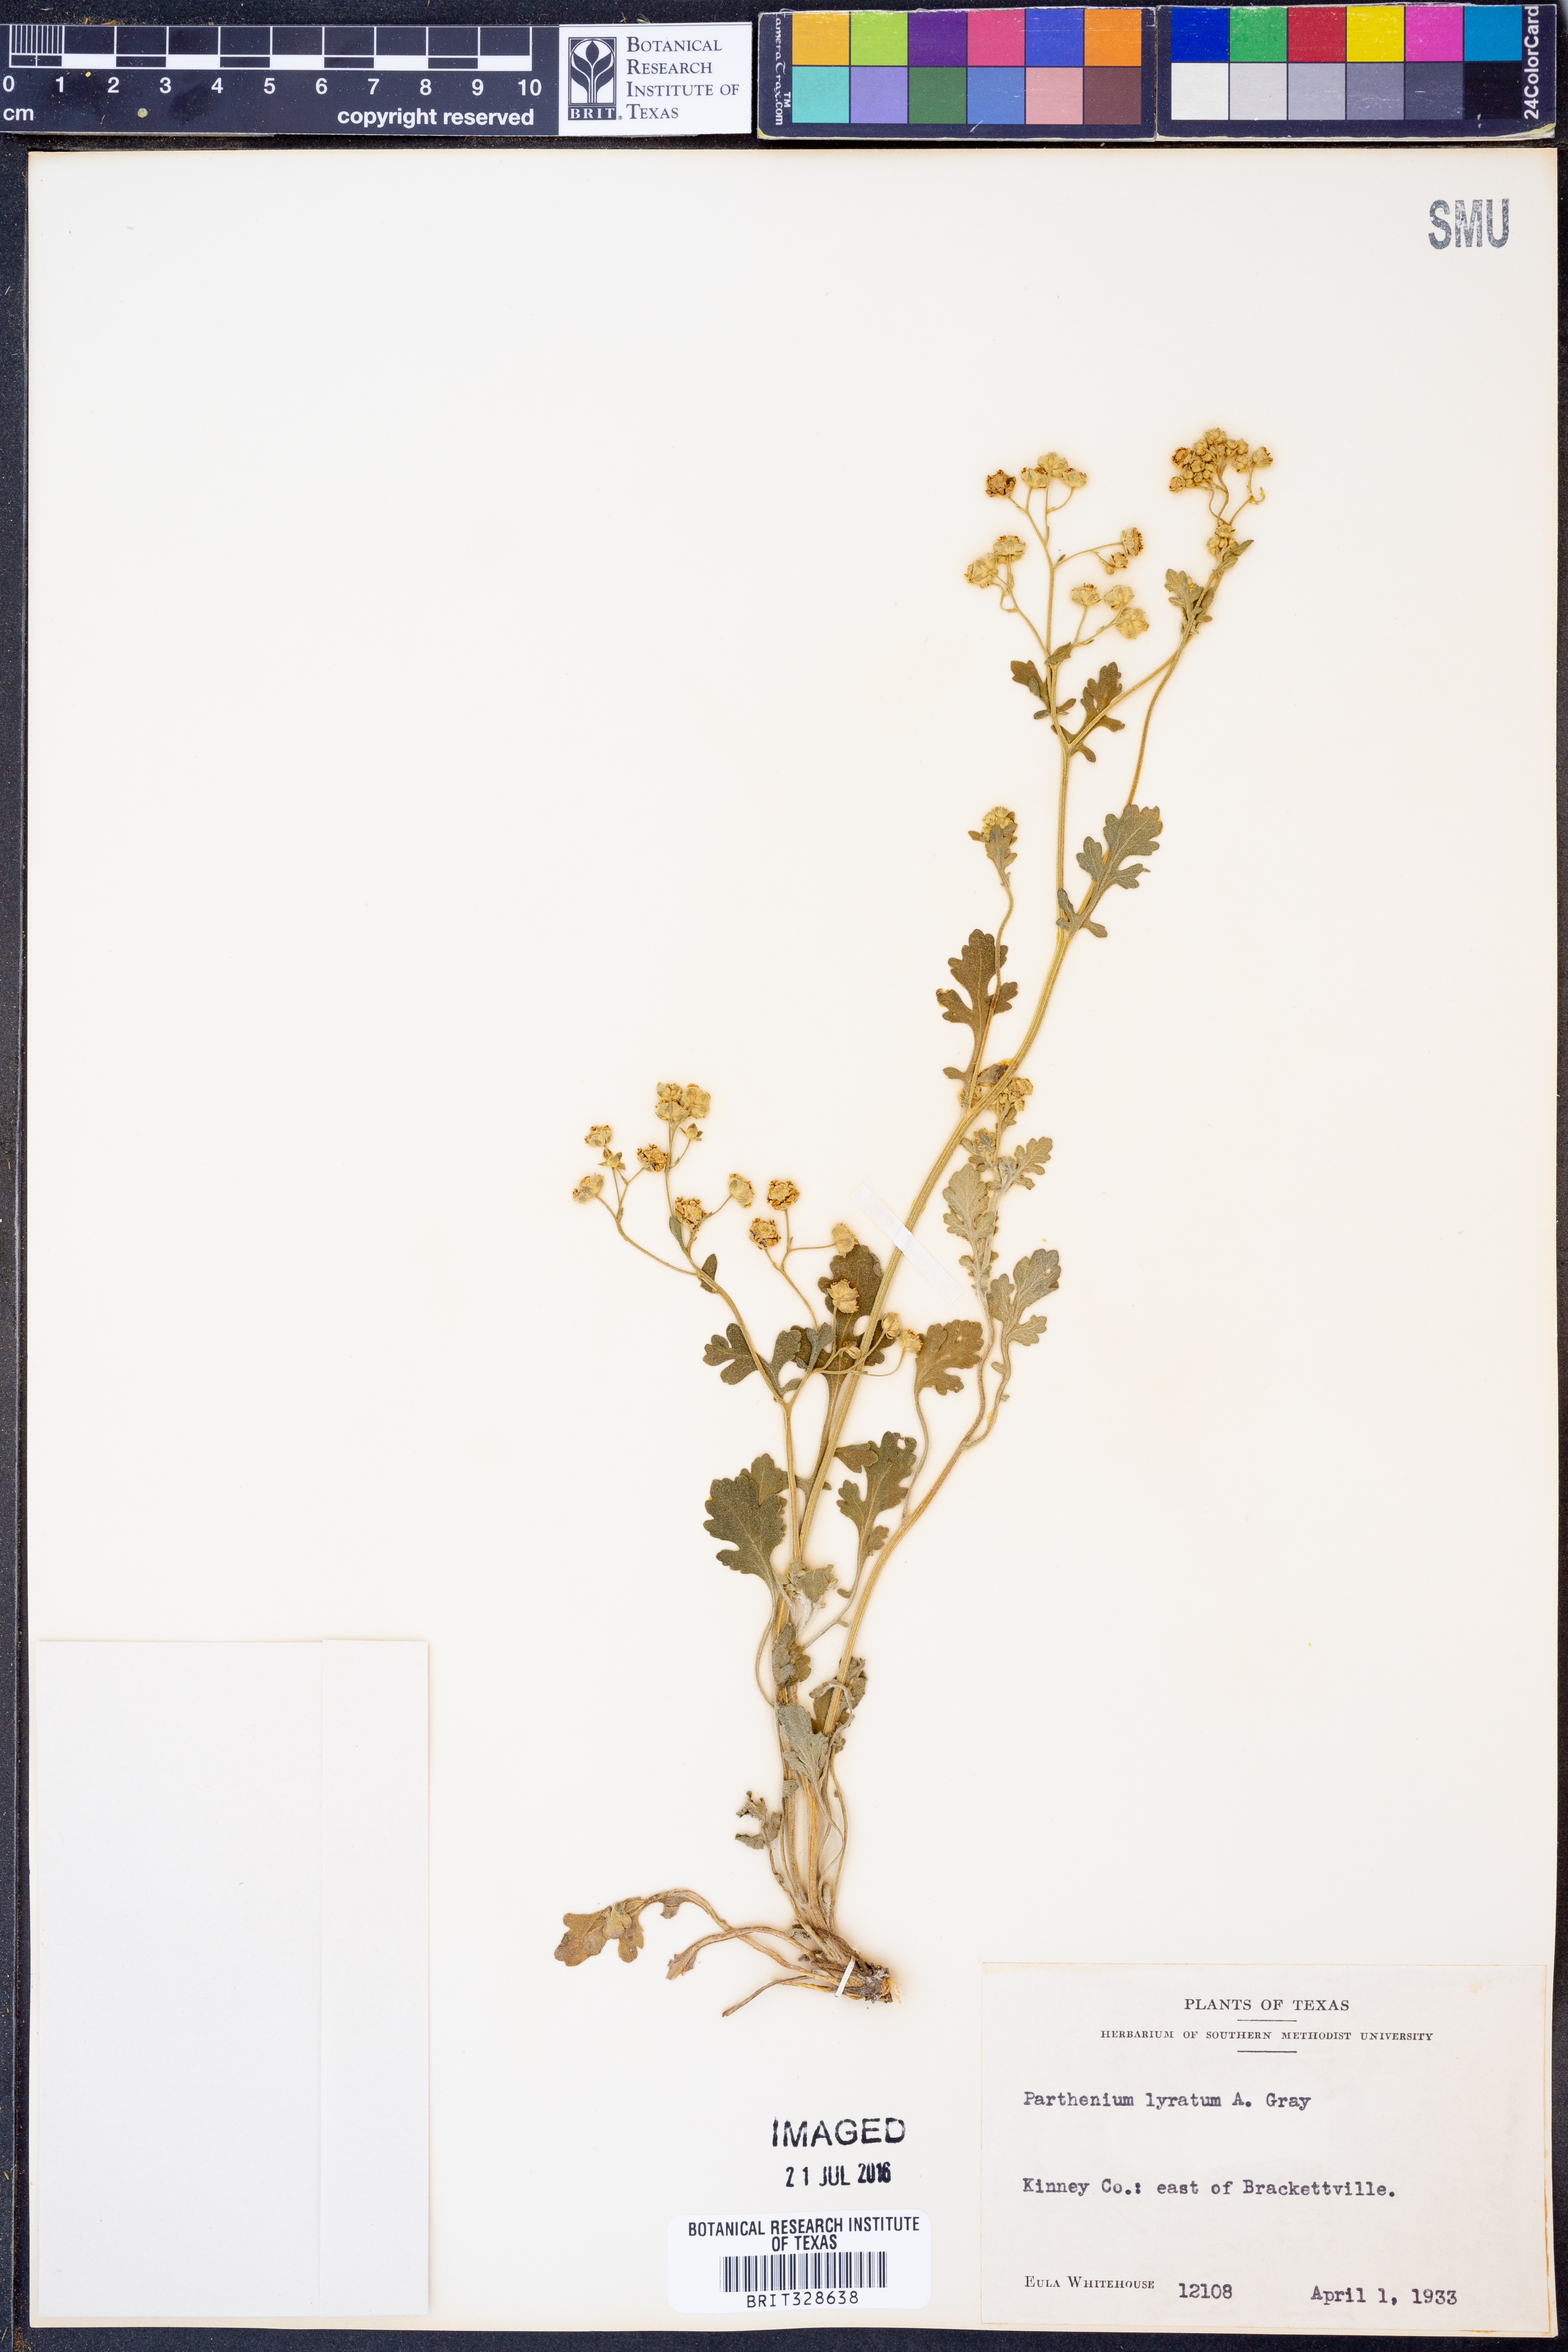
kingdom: Plantae
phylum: Tracheophyta
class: Magnoliopsida
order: Asterales
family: Asteraceae
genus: Parthenium
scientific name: Parthenium confertum
